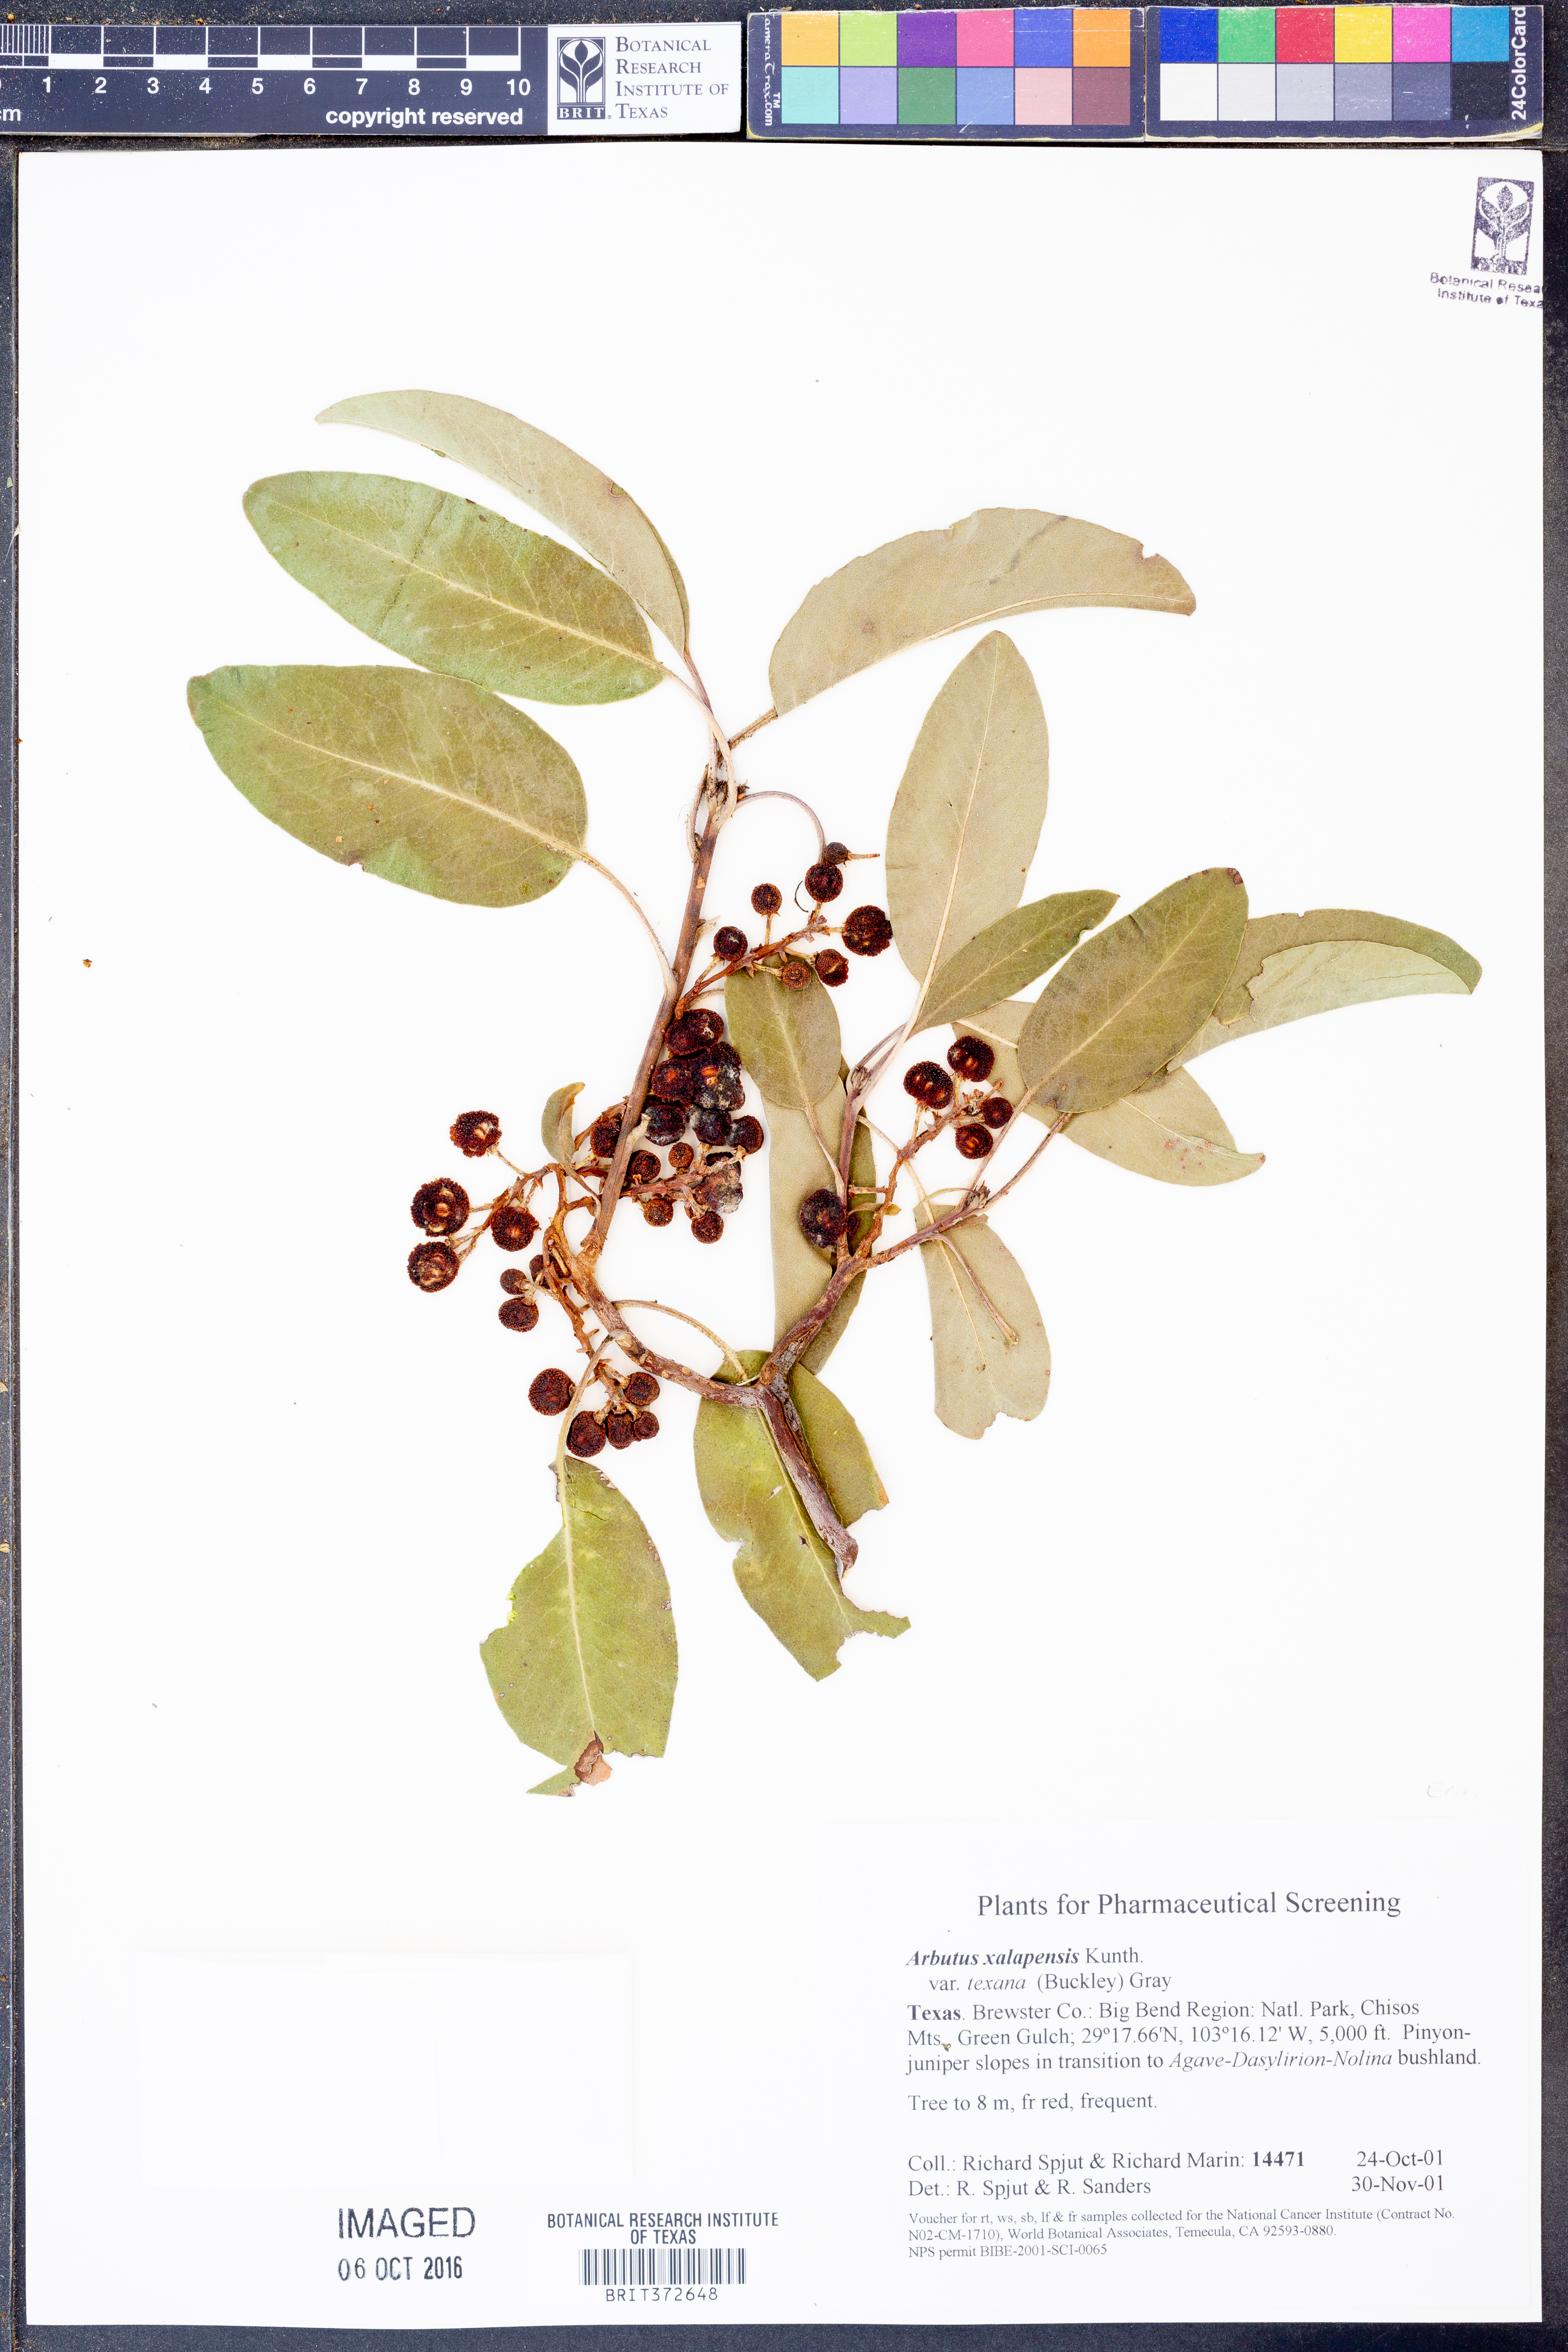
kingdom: Plantae
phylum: Tracheophyta
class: Magnoliopsida
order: Ericales
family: Ericaceae
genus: Arbutus
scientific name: Arbutus xalapensis
